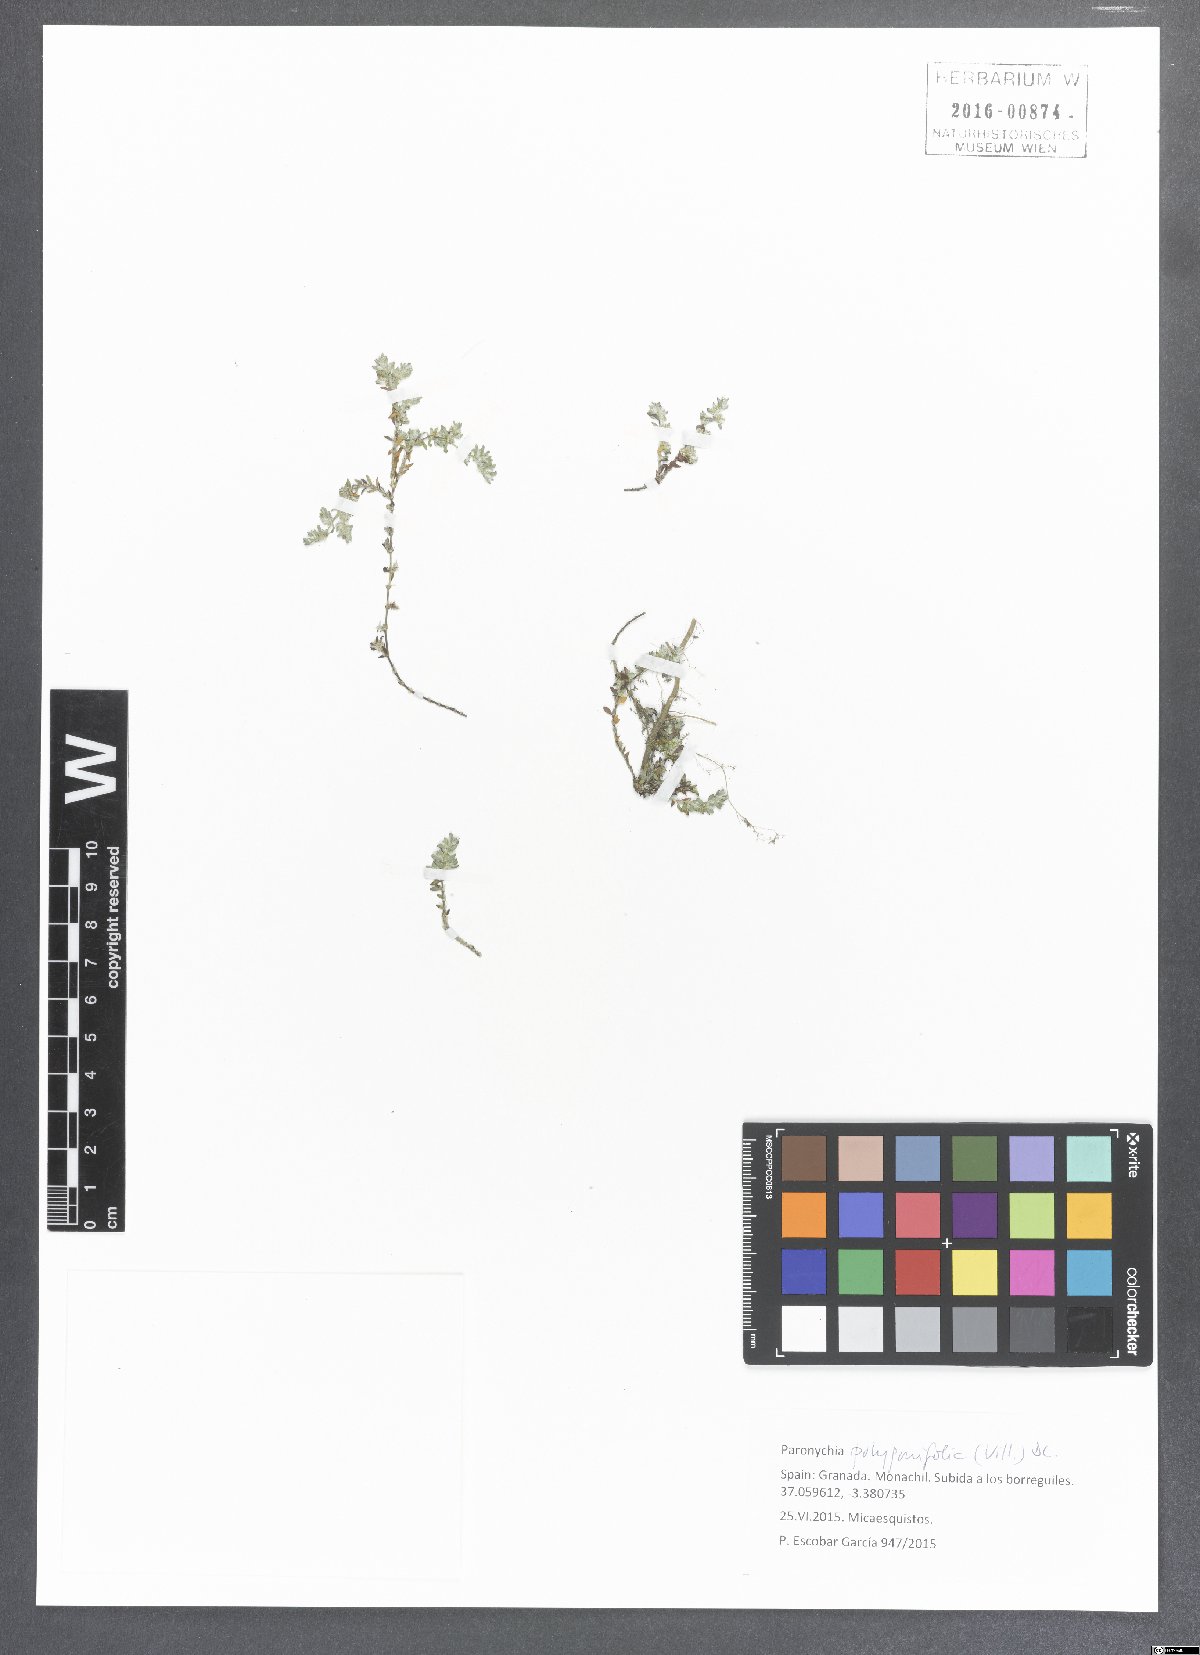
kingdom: Plantae
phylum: Tracheophyta
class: Magnoliopsida
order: Caryophyllales
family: Caryophyllaceae
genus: Paronychia
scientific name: Paronychia polygonifolia
